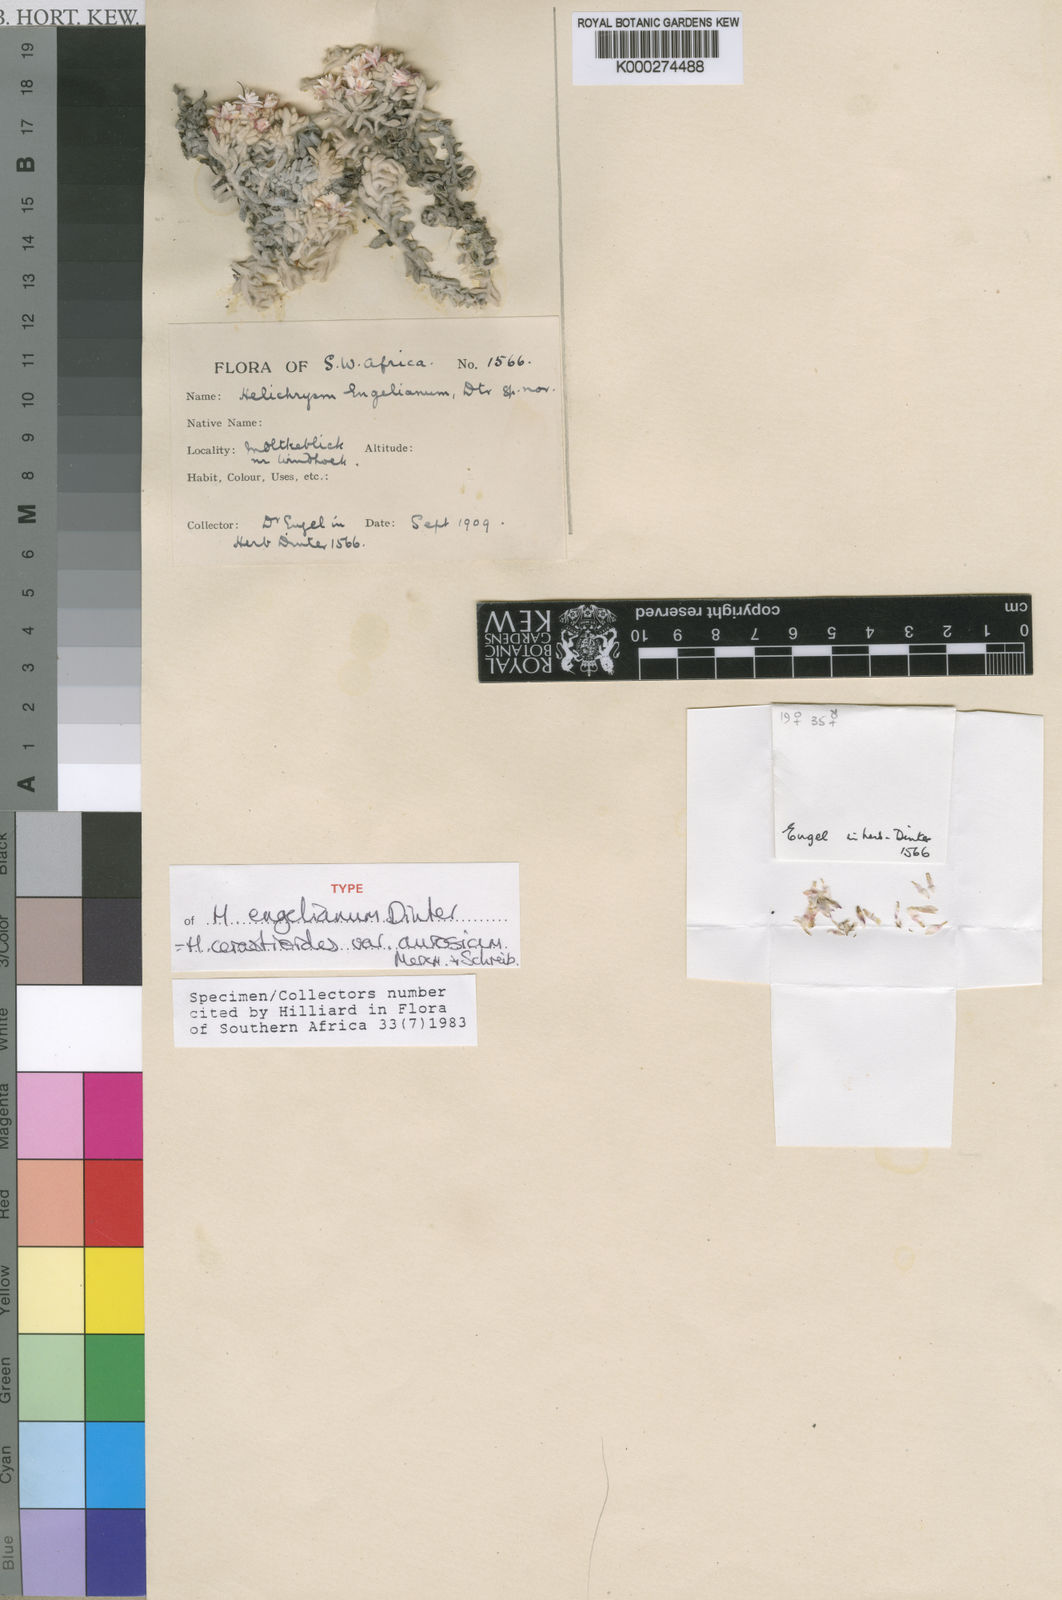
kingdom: Plantae
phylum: Tracheophyta
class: Magnoliopsida
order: Asterales
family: Asteraceae
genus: Helichrysum
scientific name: Helichrysum cerastioides
